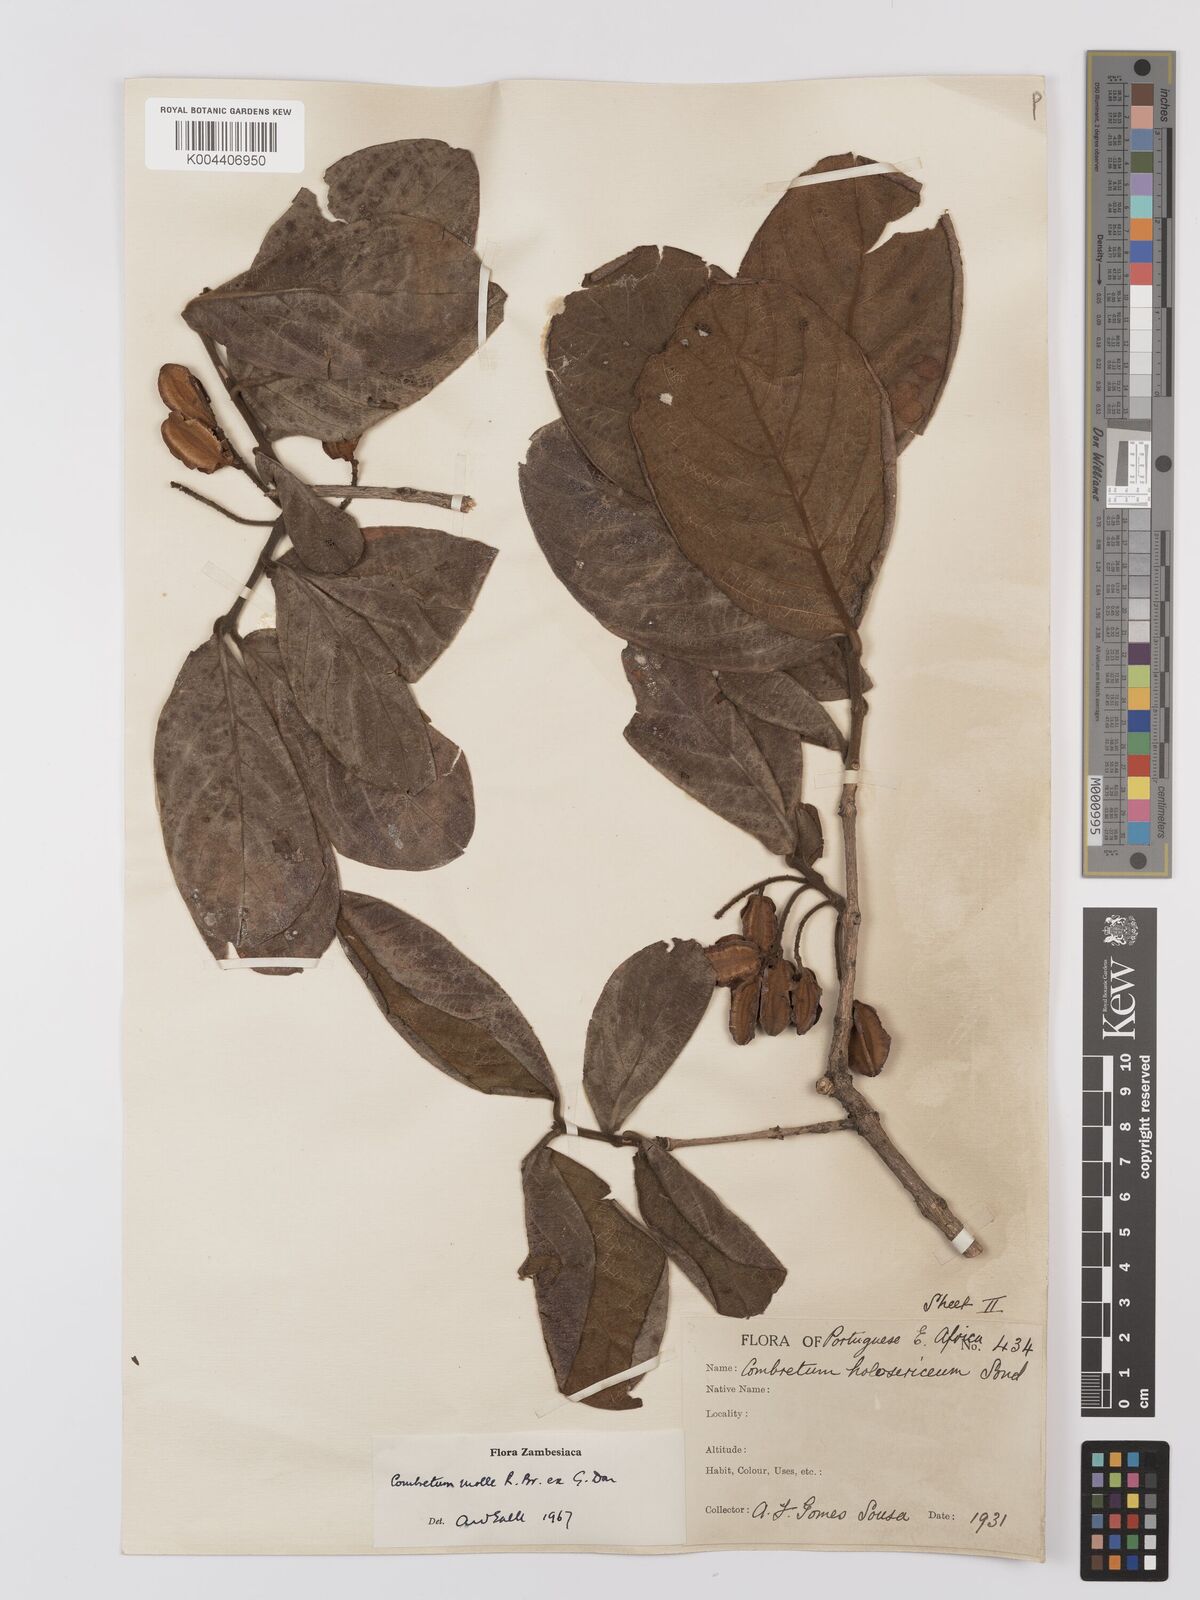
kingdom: Plantae
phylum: Tracheophyta
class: Magnoliopsida
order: Myrtales
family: Combretaceae
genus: Combretum
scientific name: Combretum
